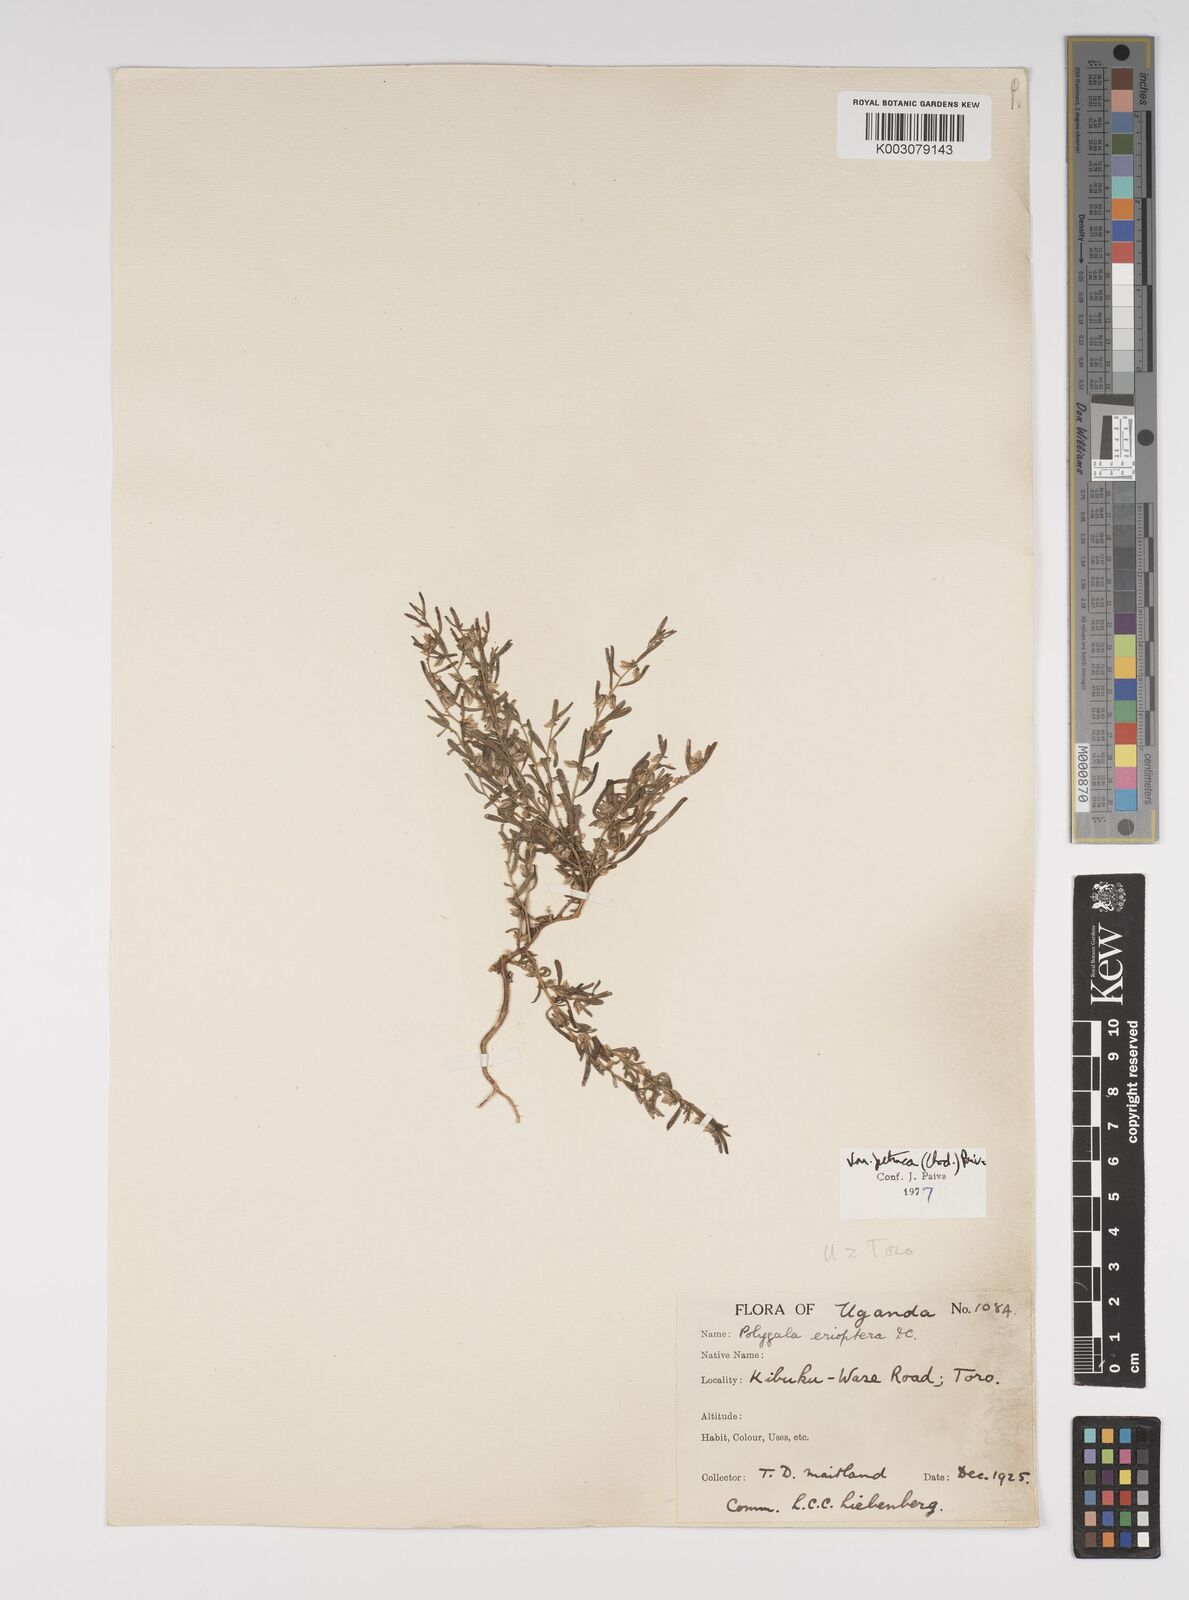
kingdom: Plantae
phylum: Tracheophyta
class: Magnoliopsida
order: Fabales
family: Polygalaceae
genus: Polygala
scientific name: Polygala erioptera
